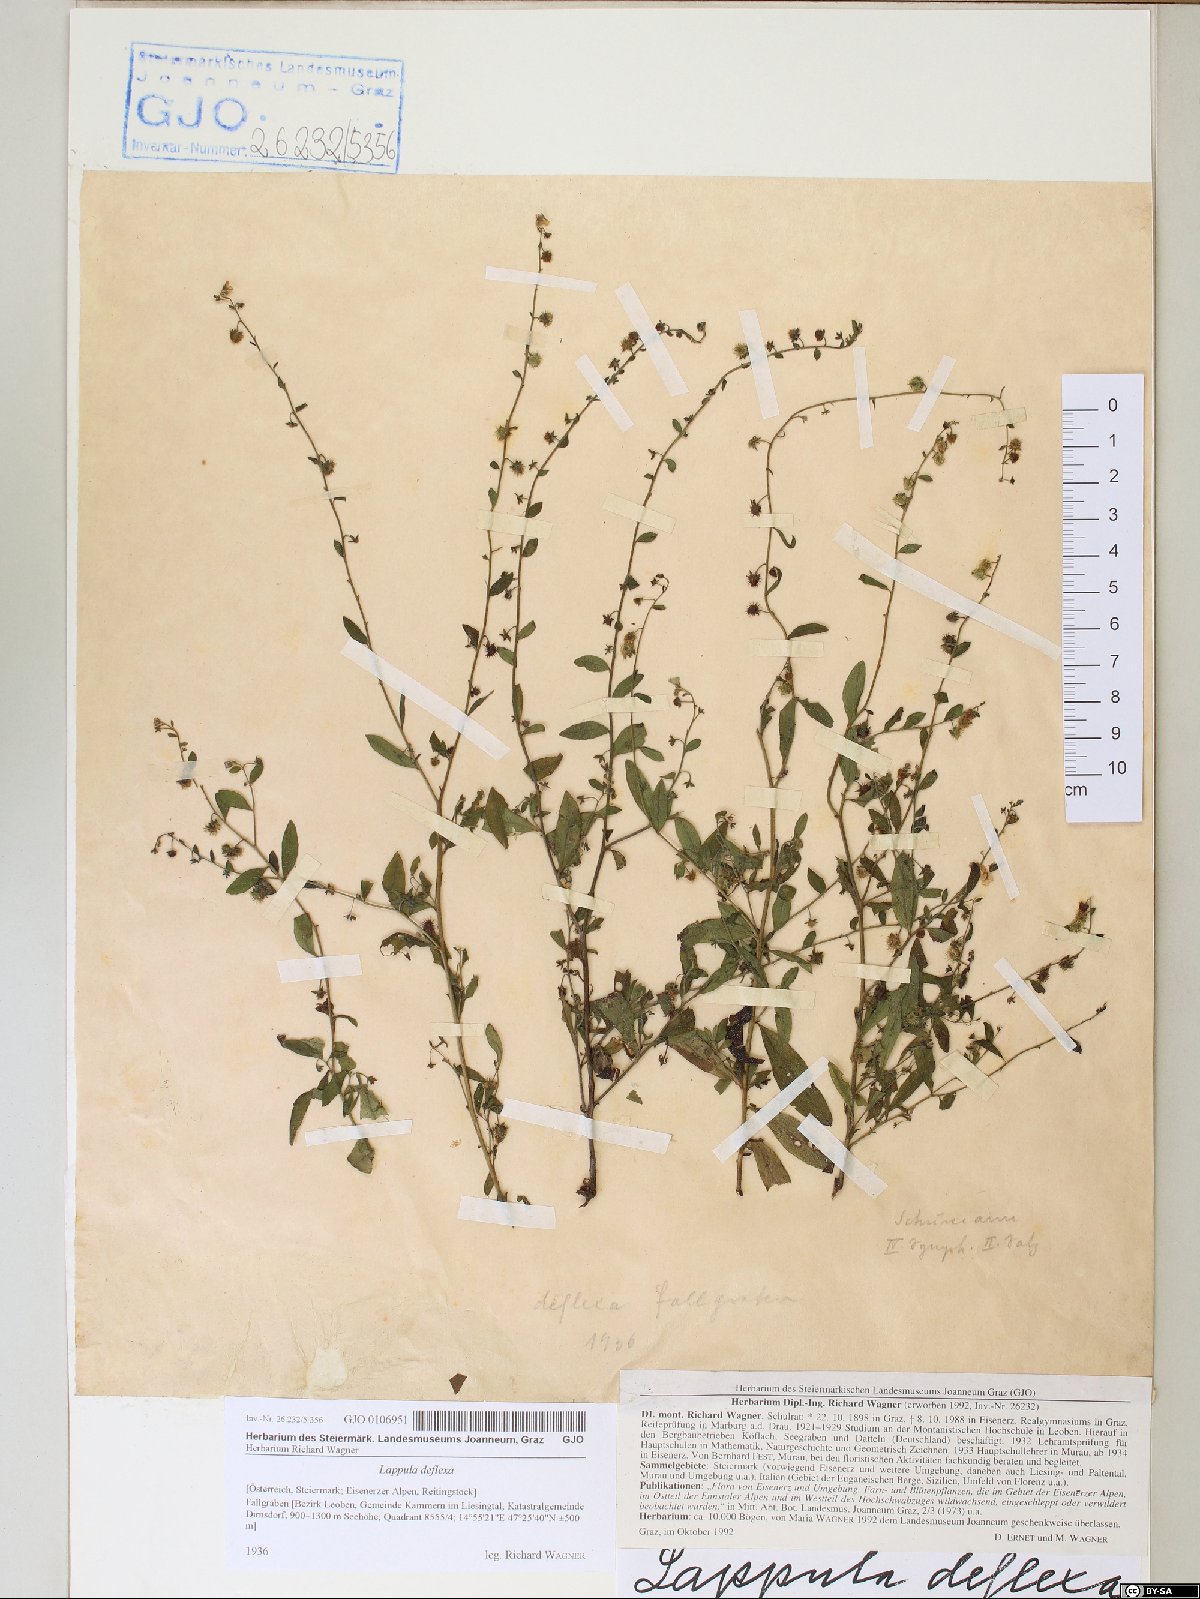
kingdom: Plantae
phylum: Tracheophyta
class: Magnoliopsida
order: Boraginales
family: Boraginaceae
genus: Hackelia
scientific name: Hackelia deflexa
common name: Nodding stickseed
